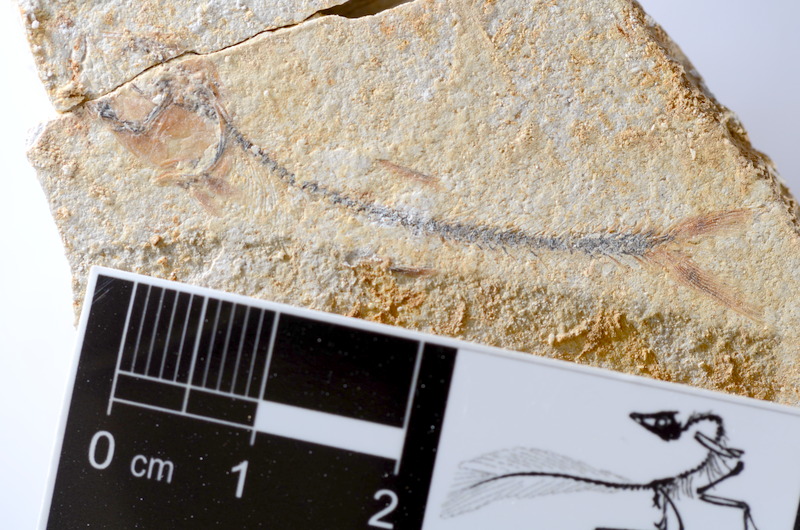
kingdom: Animalia
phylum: Chordata
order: Salmoniformes
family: Orthogonikleithridae
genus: Orthogonikleithrus
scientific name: Orthogonikleithrus hoelli
